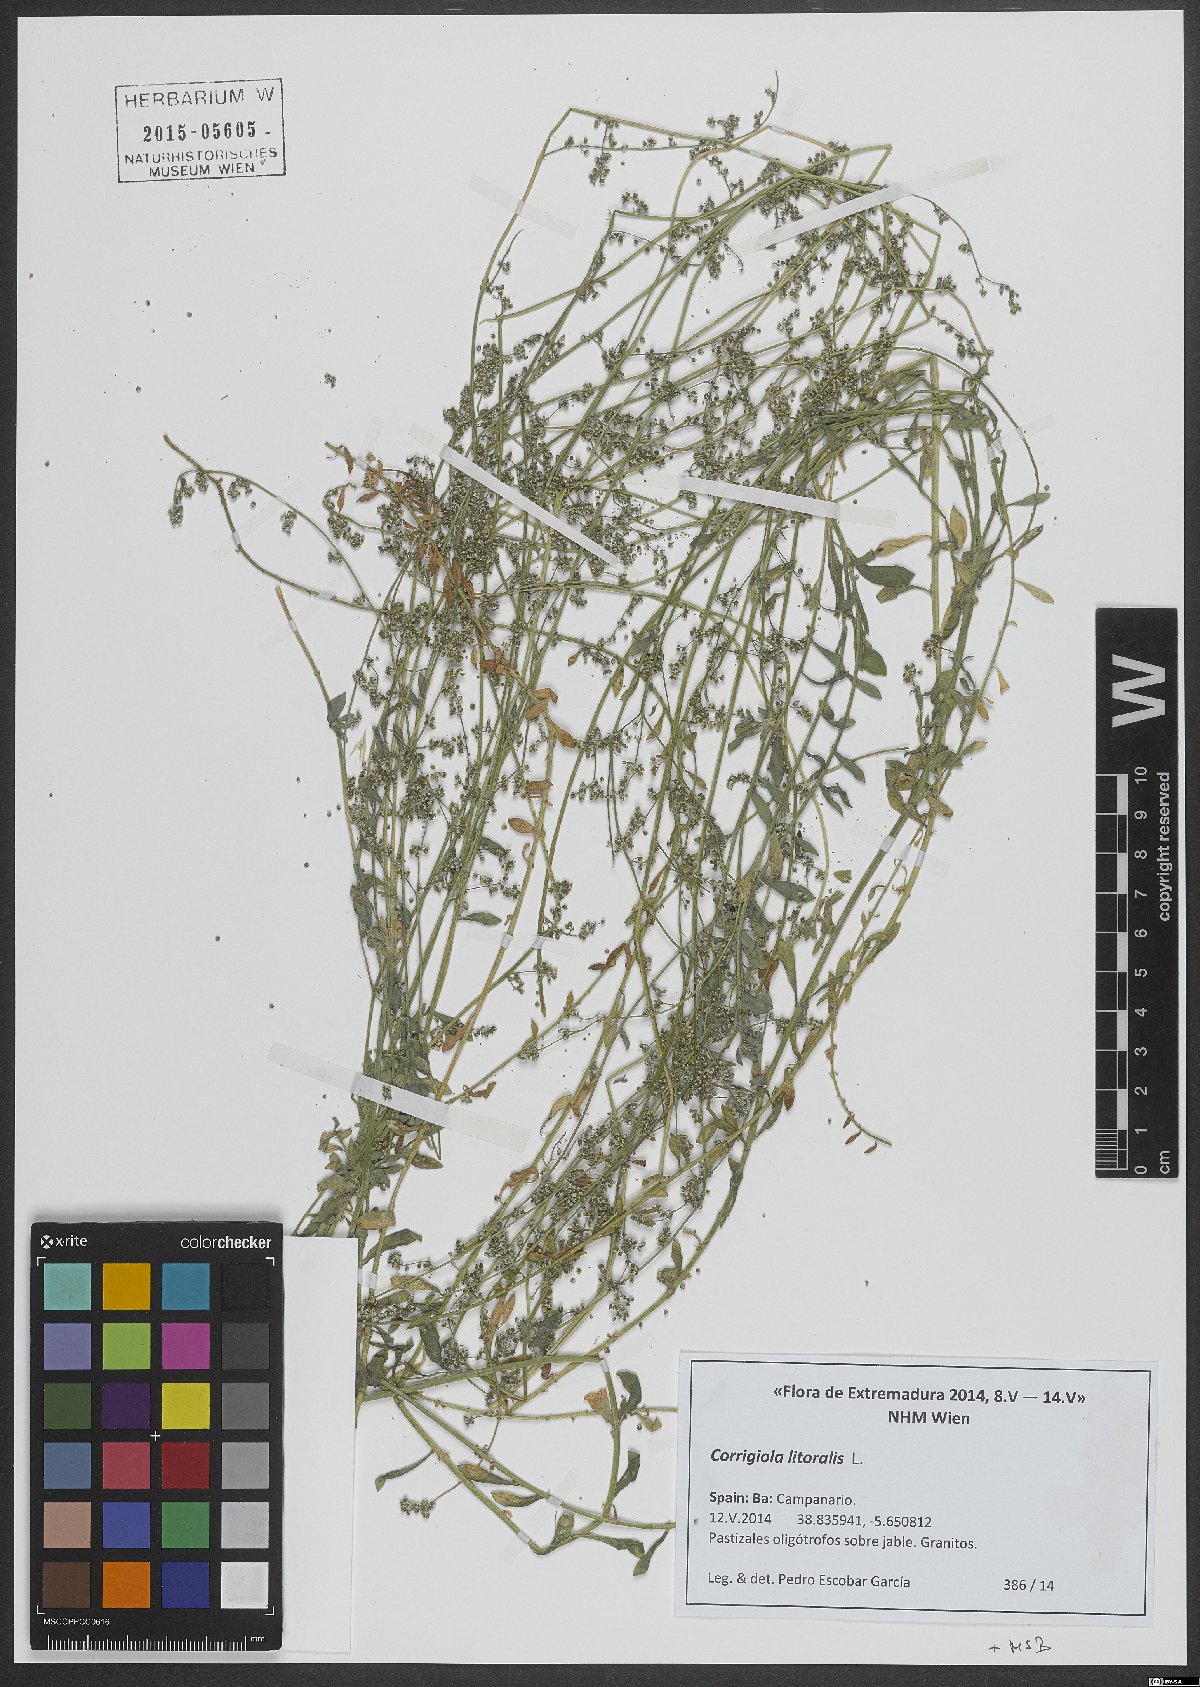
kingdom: Plantae
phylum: Tracheophyta
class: Magnoliopsida
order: Caryophyllales
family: Caryophyllaceae
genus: Corrigiola
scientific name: Corrigiola litoralis
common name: Strapwort
